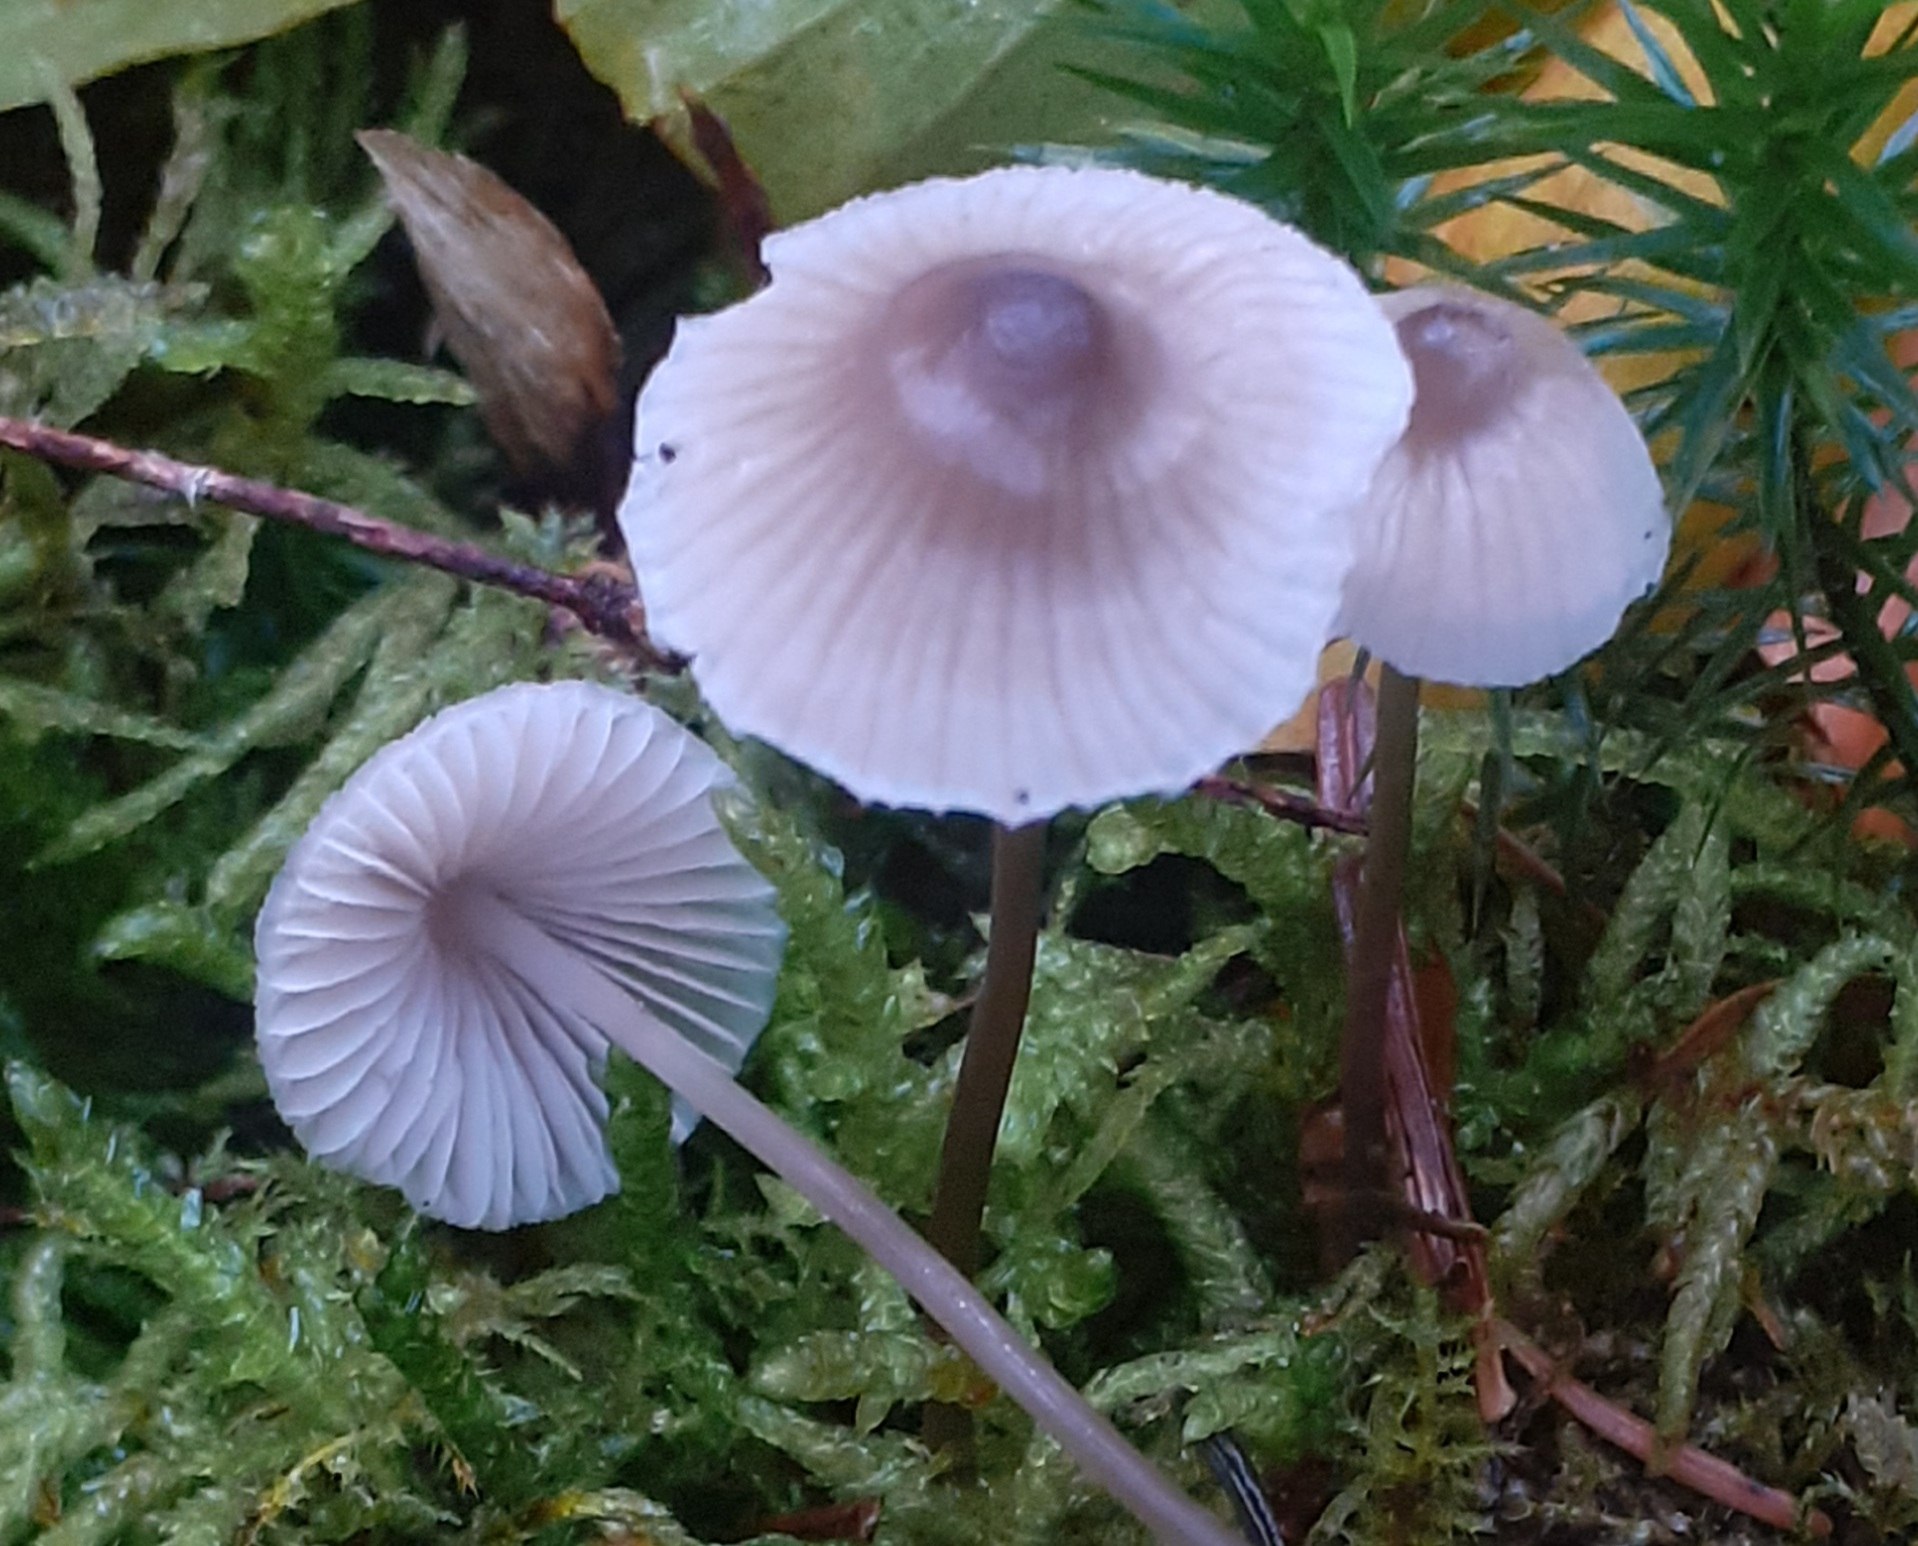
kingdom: Fungi
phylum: Basidiomycota
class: Agaricomycetes
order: Agaricales
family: Mycenaceae
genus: Mycena
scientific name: Mycena filopes
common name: jod-huesvamp
